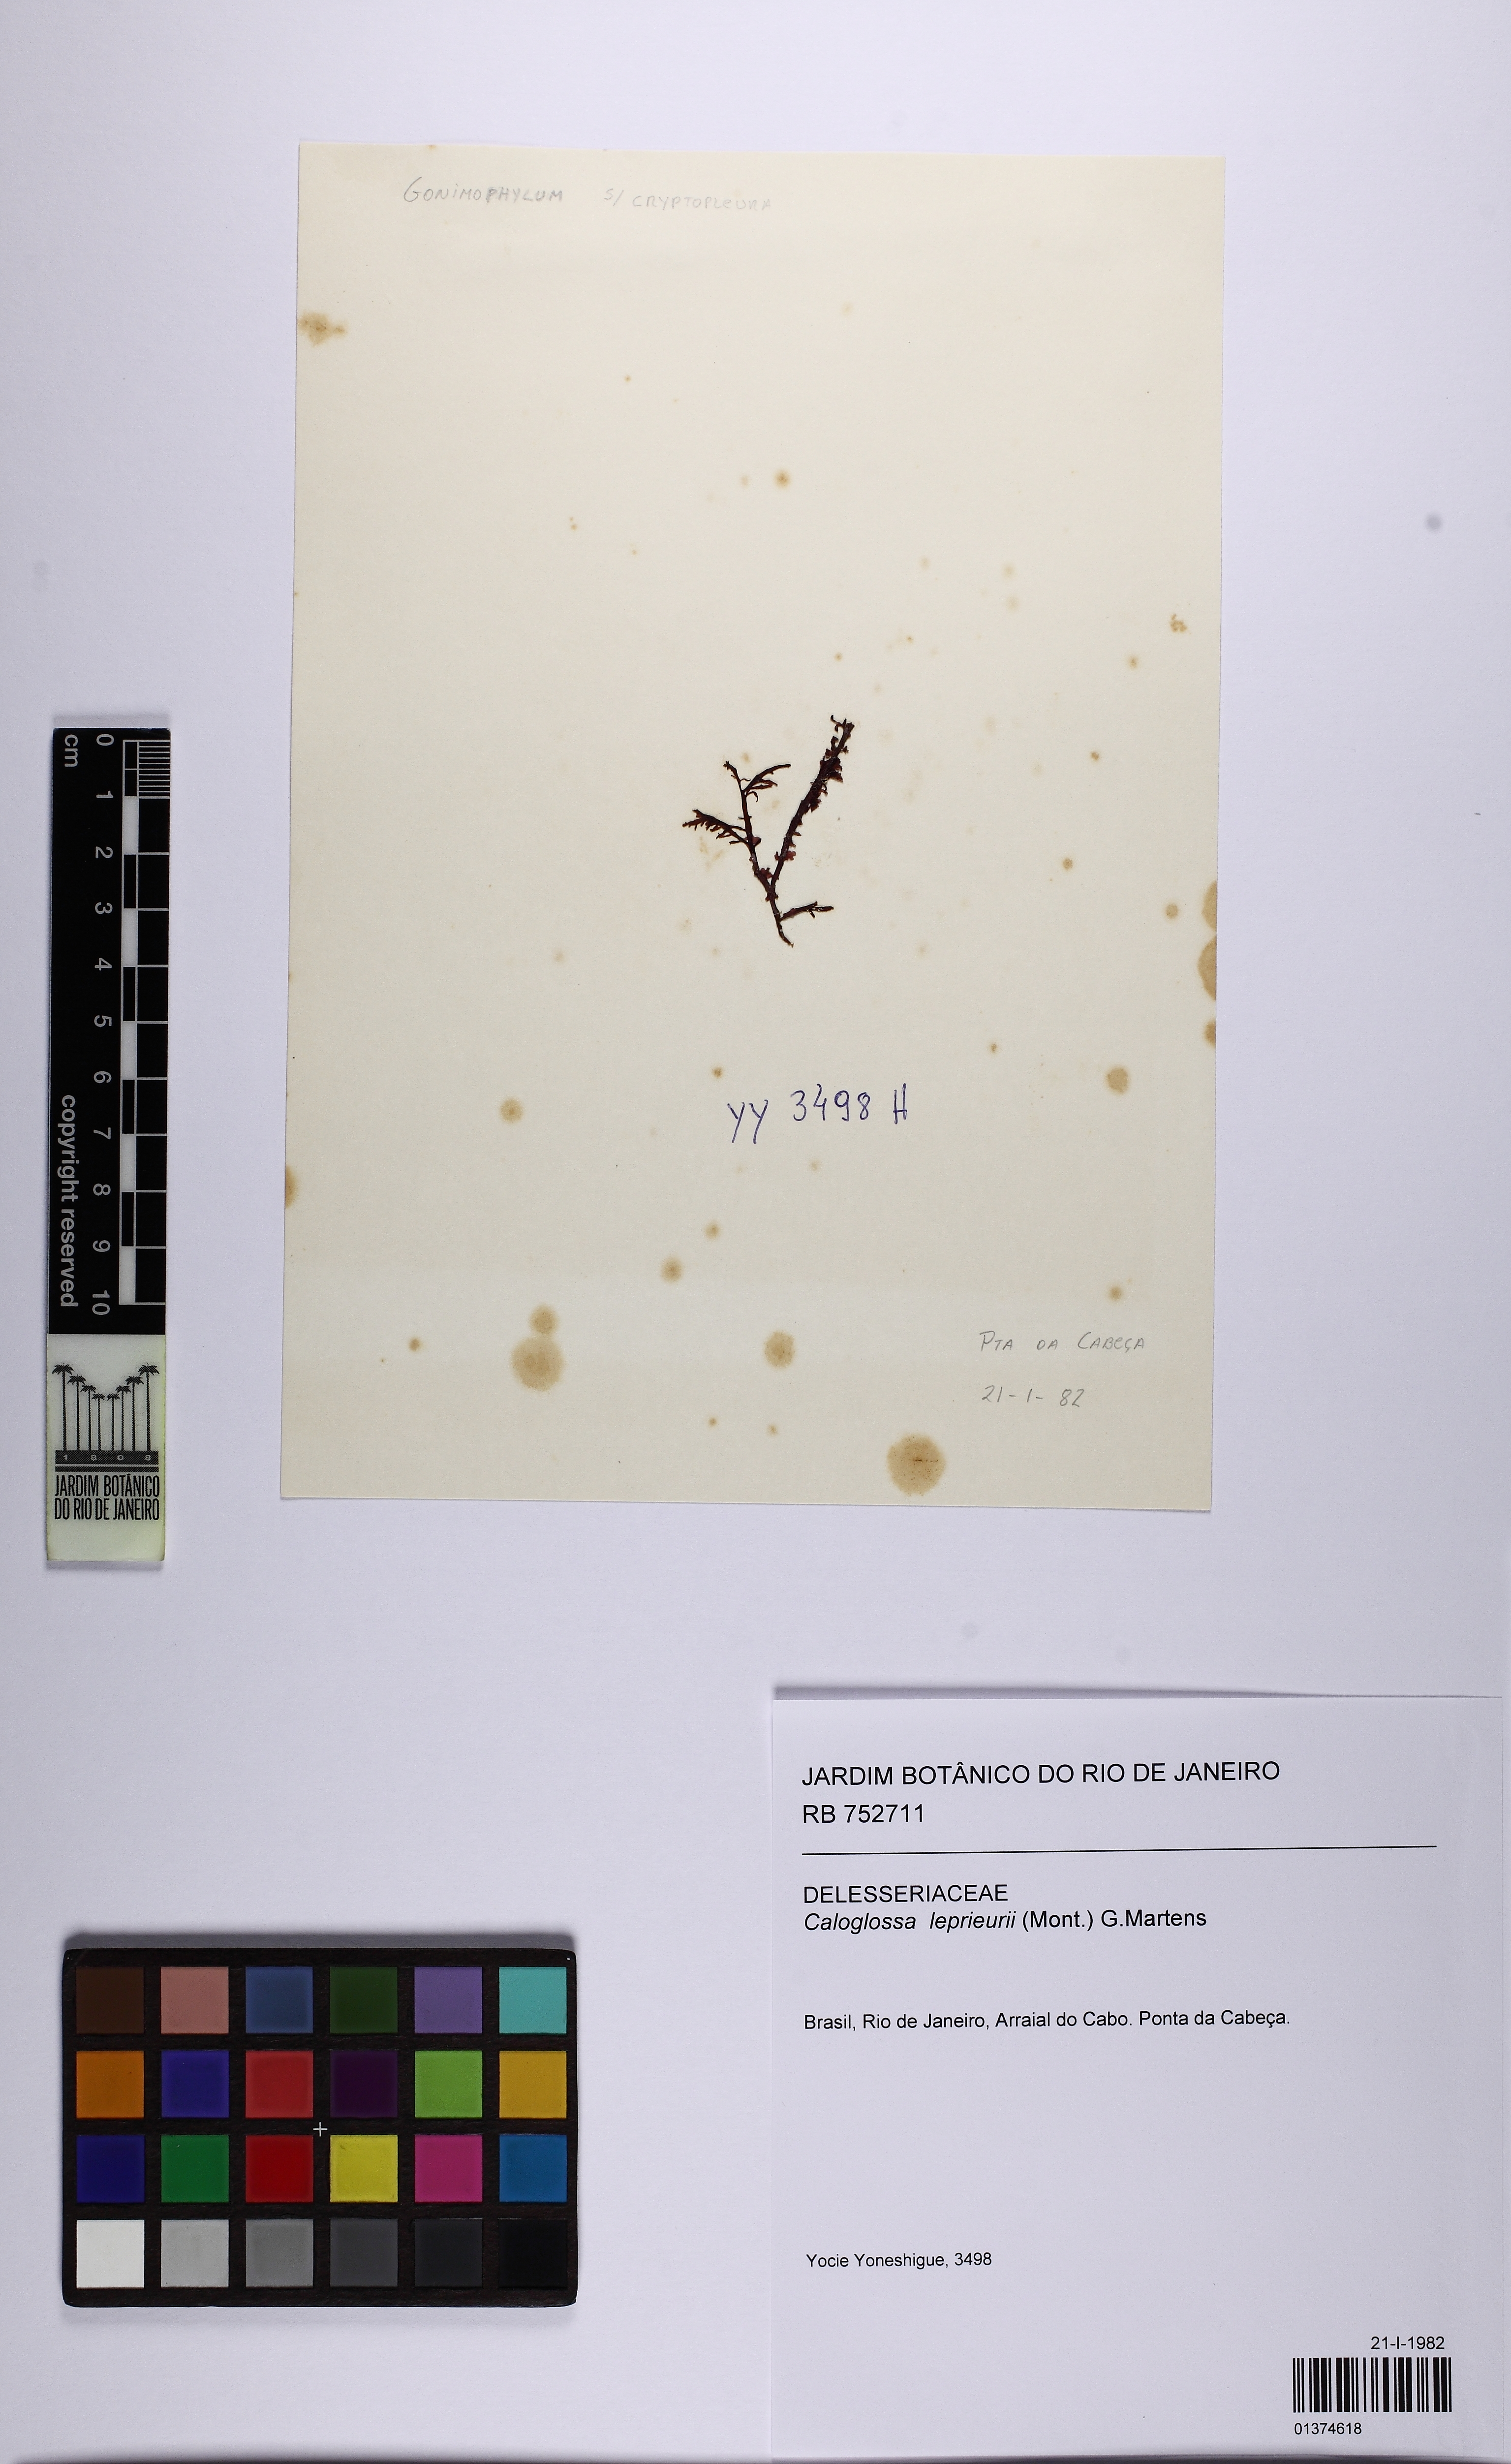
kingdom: Plantae
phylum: Rhodophyta
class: Florideophyceae
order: Ceramiales
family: Delesseriaceae
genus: Caloglossa
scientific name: Caloglossa leprieurii
